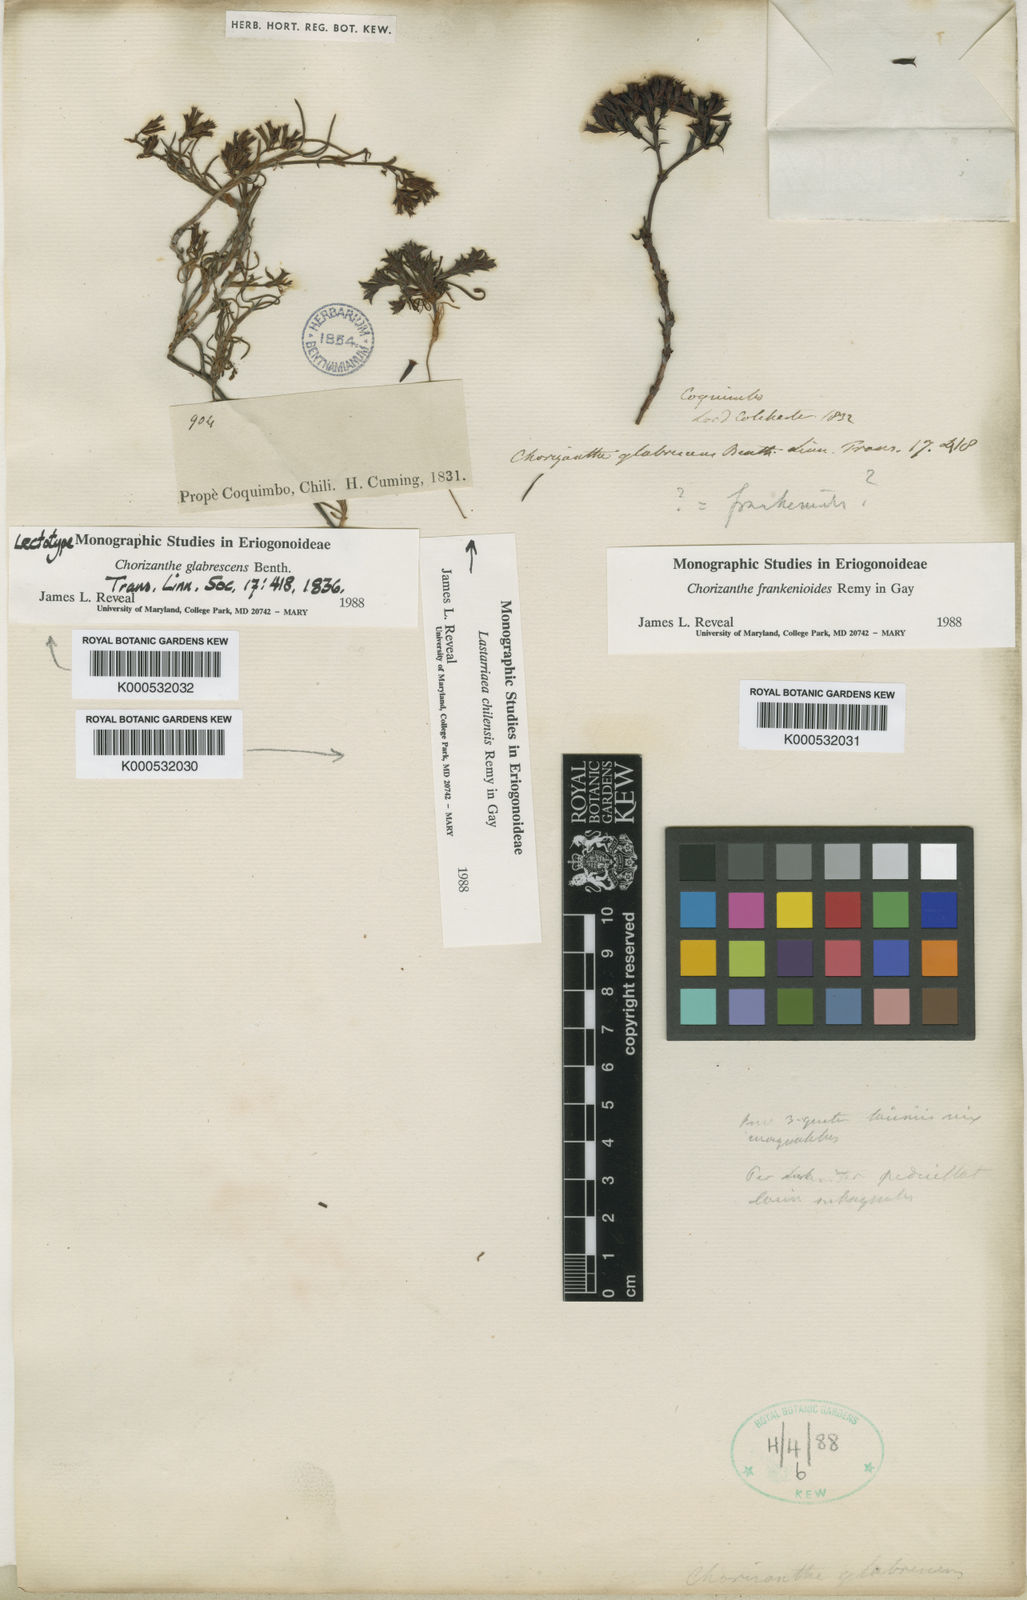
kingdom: Plantae
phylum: Tracheophyta
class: Magnoliopsida
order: Caryophyllales
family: Polygonaceae
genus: Chorizanthe
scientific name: Chorizanthe glabrescens
